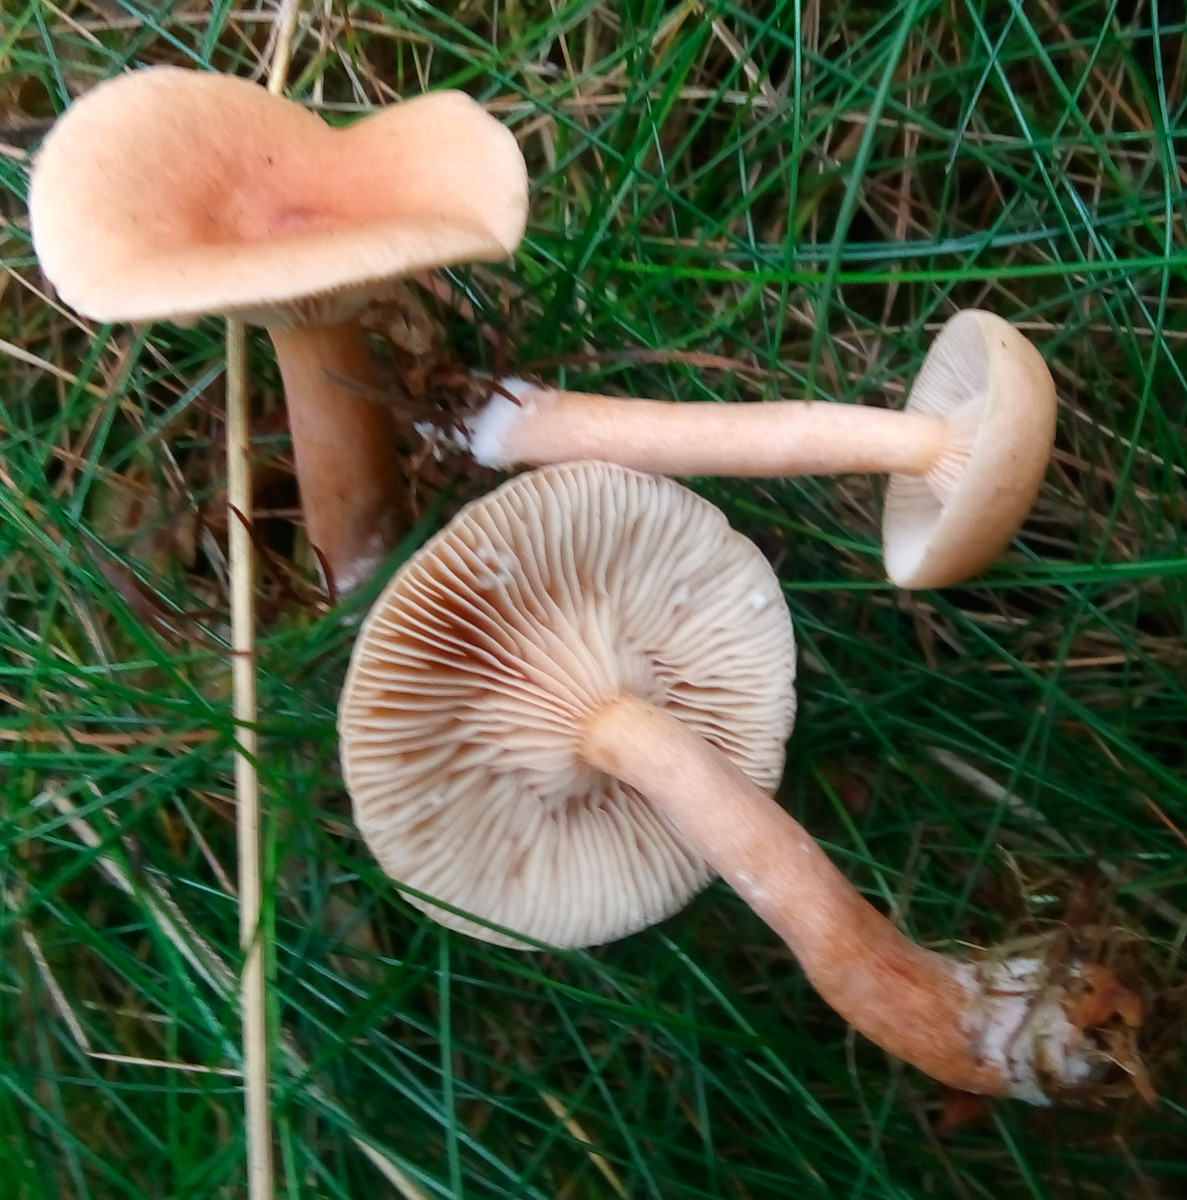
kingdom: Fungi
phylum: Basidiomycota
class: Agaricomycetes
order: Russulales
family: Russulaceae
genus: Lactarius
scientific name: Lactarius tabidus
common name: rynket mælkehat
